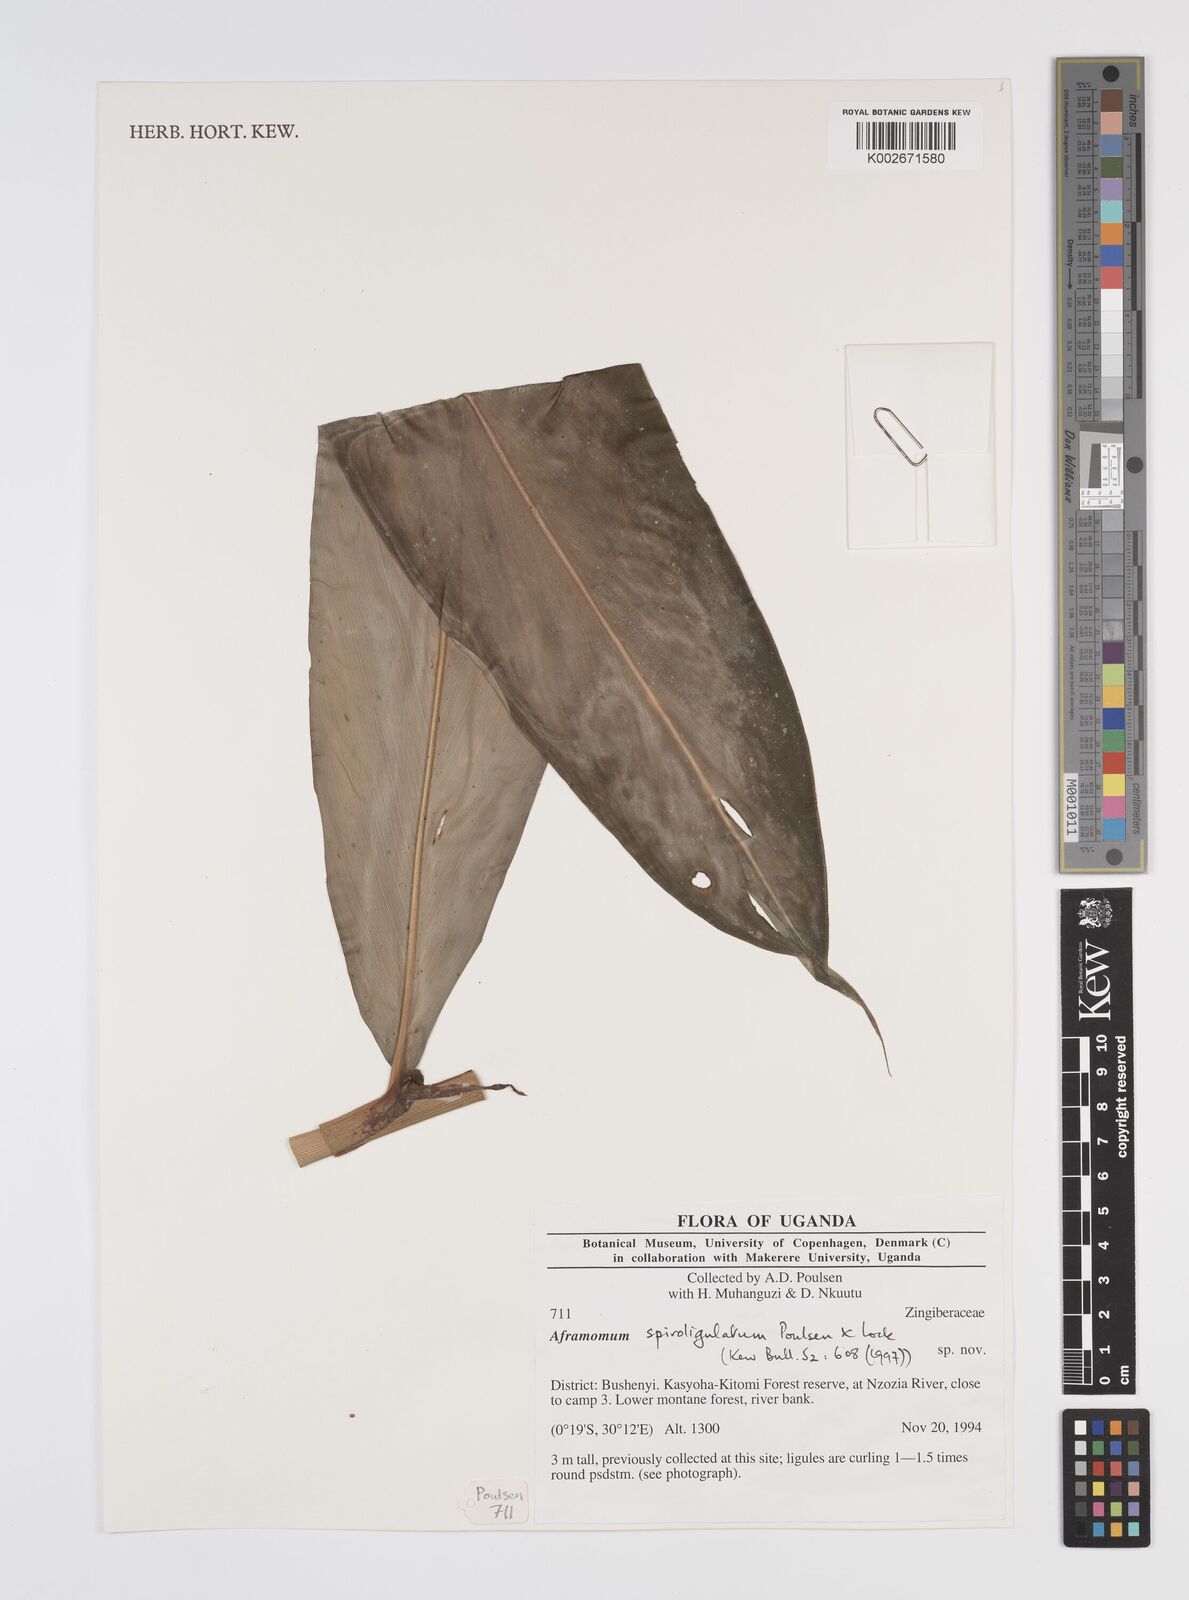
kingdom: Plantae
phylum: Tracheophyta
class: Liliopsida
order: Zingiberales
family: Zingiberaceae
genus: Aframomum
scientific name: Aframomum spiroligulatum
